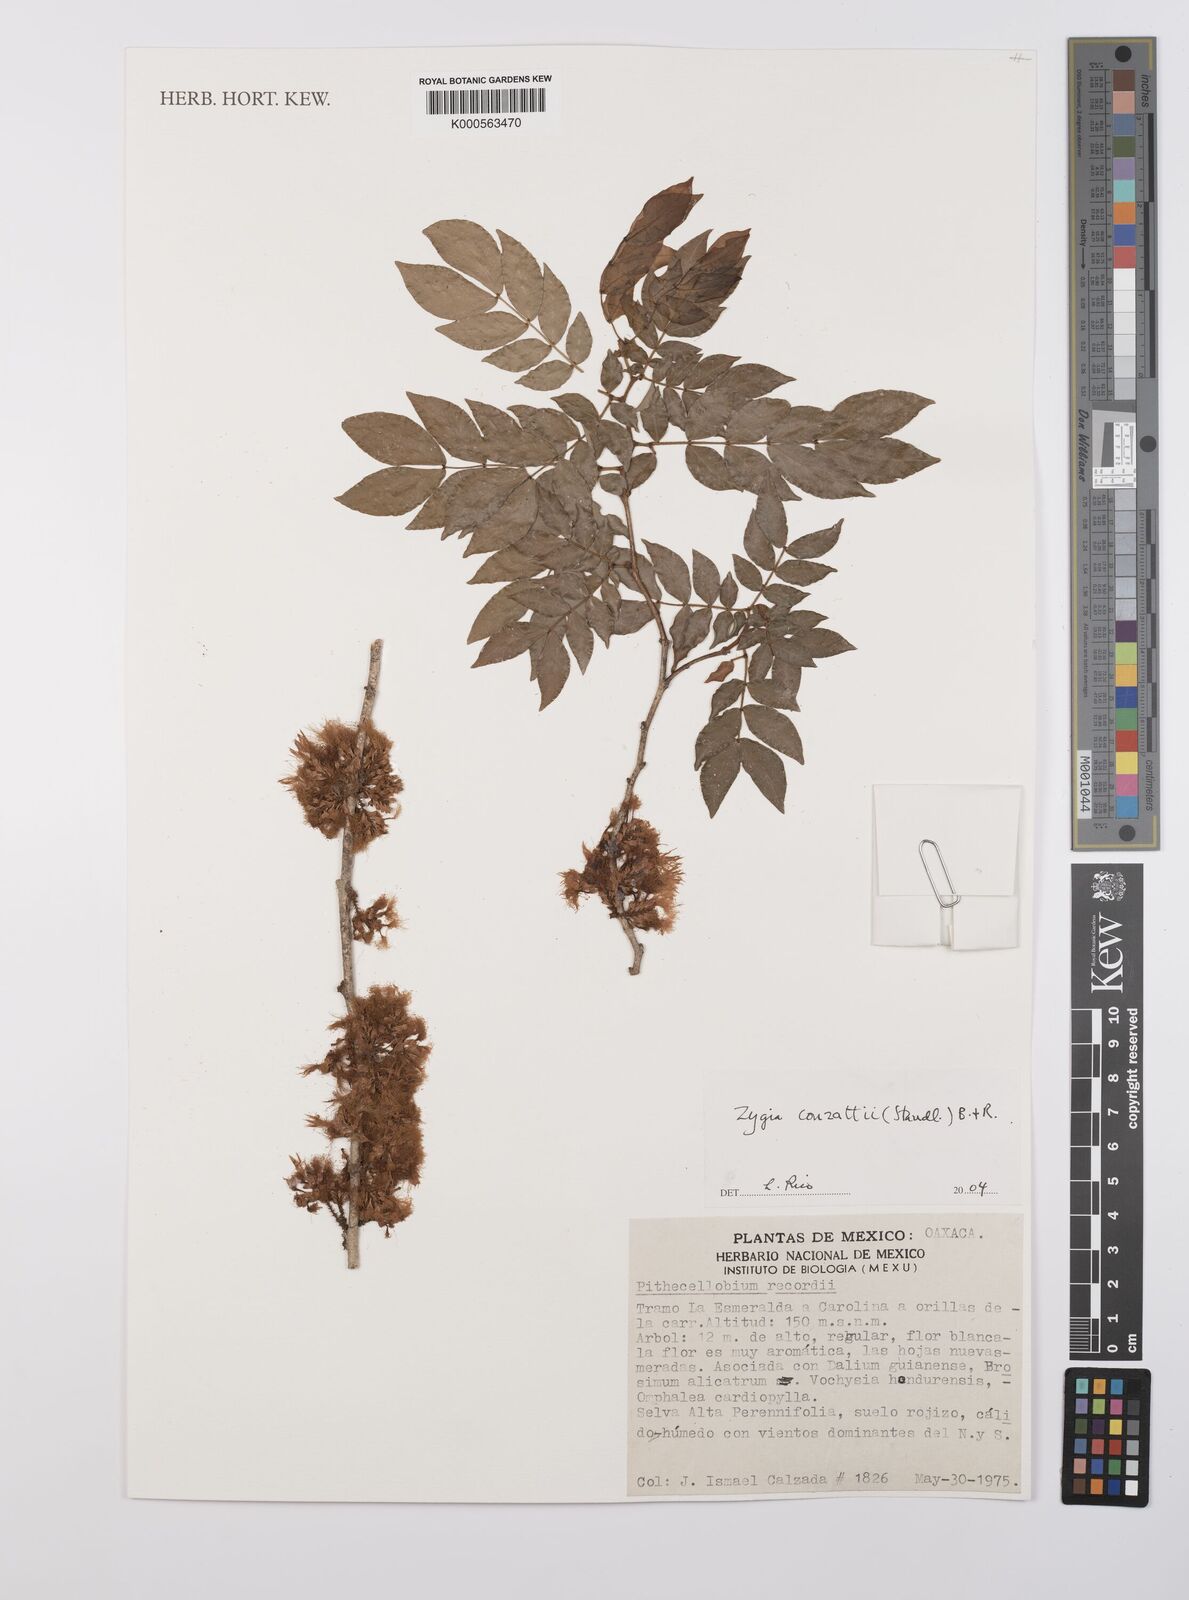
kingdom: Plantae
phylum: Tracheophyta
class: Magnoliopsida
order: Fabales
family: Fabaceae
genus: Zygia
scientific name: Zygia conzattii
